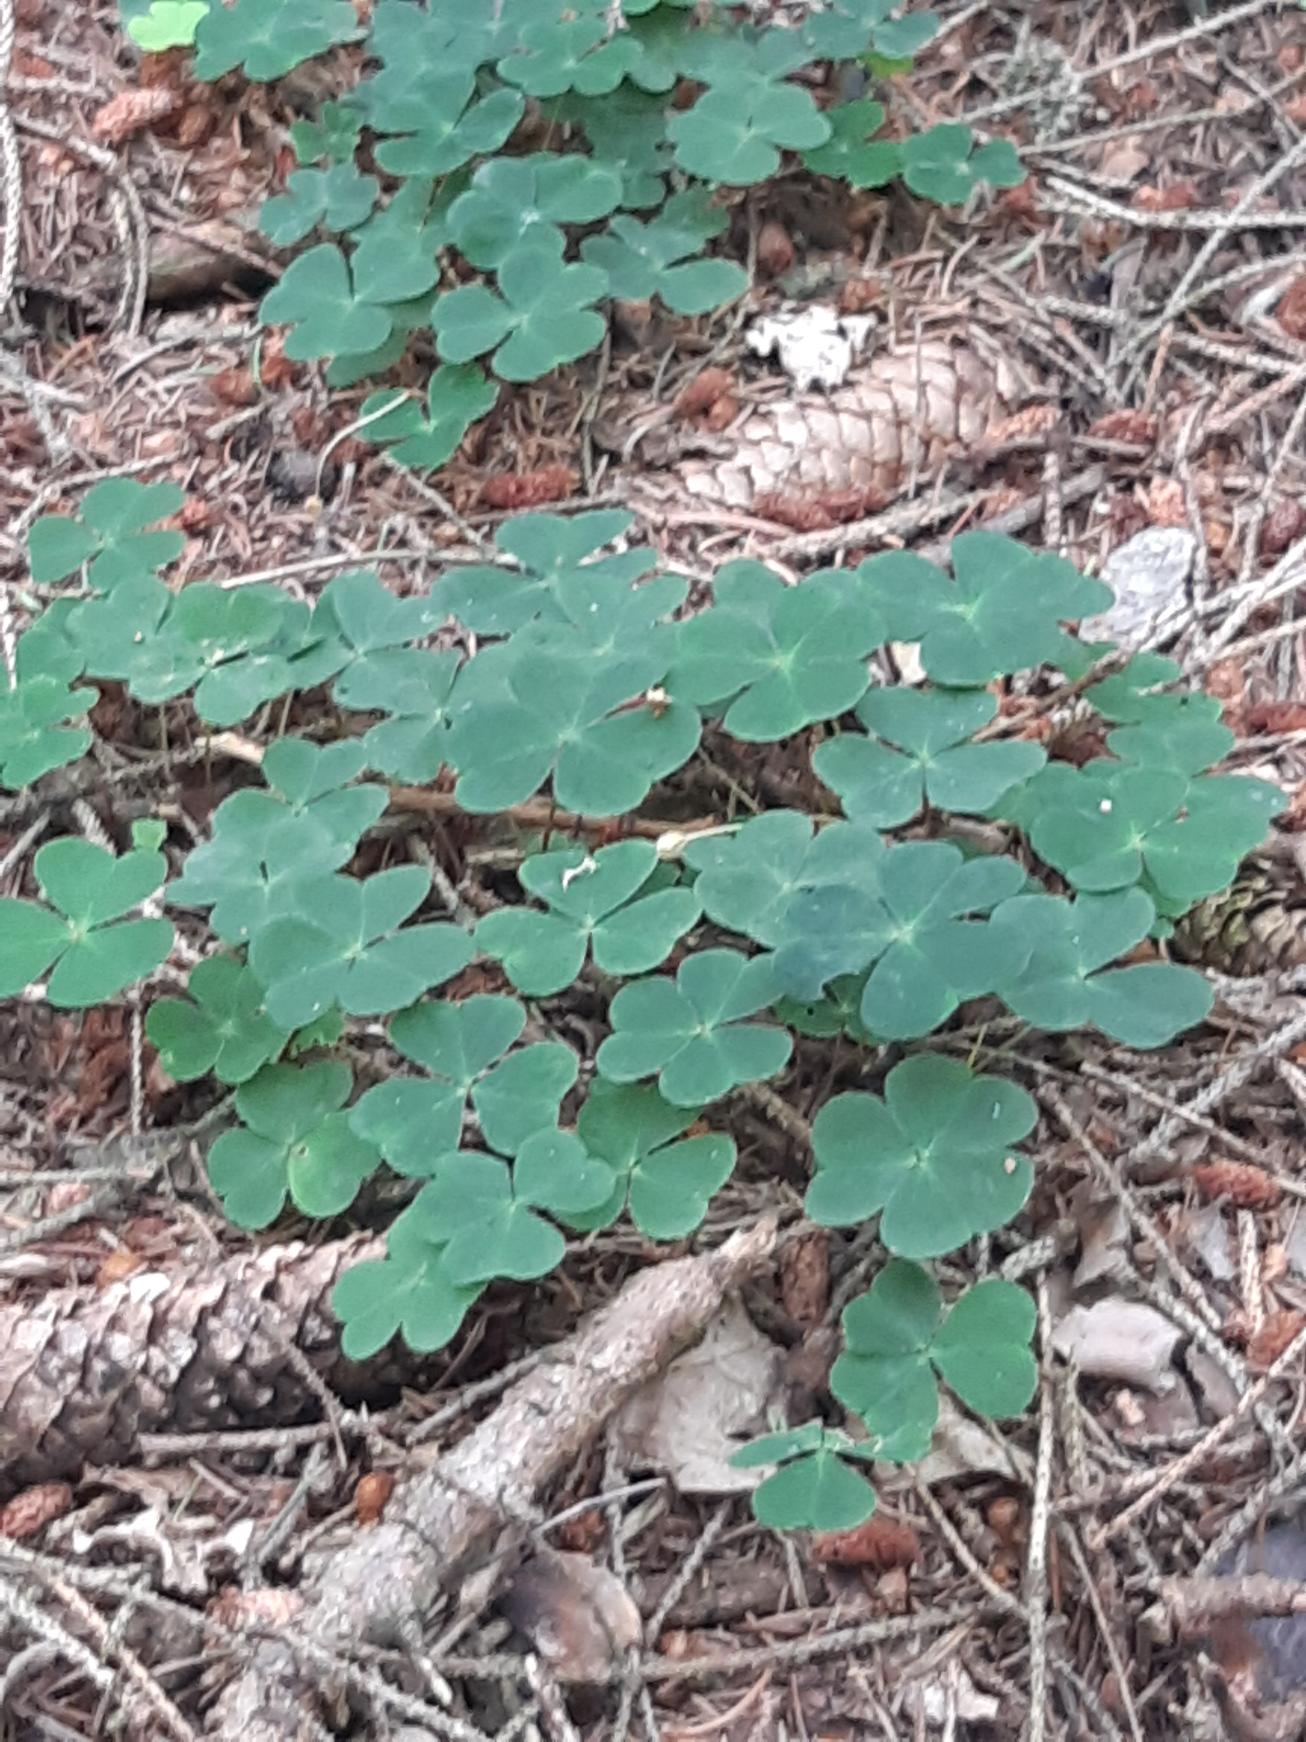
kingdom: Plantae
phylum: Tracheophyta
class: Magnoliopsida
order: Oxalidales
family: Oxalidaceae
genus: Oxalis
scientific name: Oxalis acetosella
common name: Skovsyre
